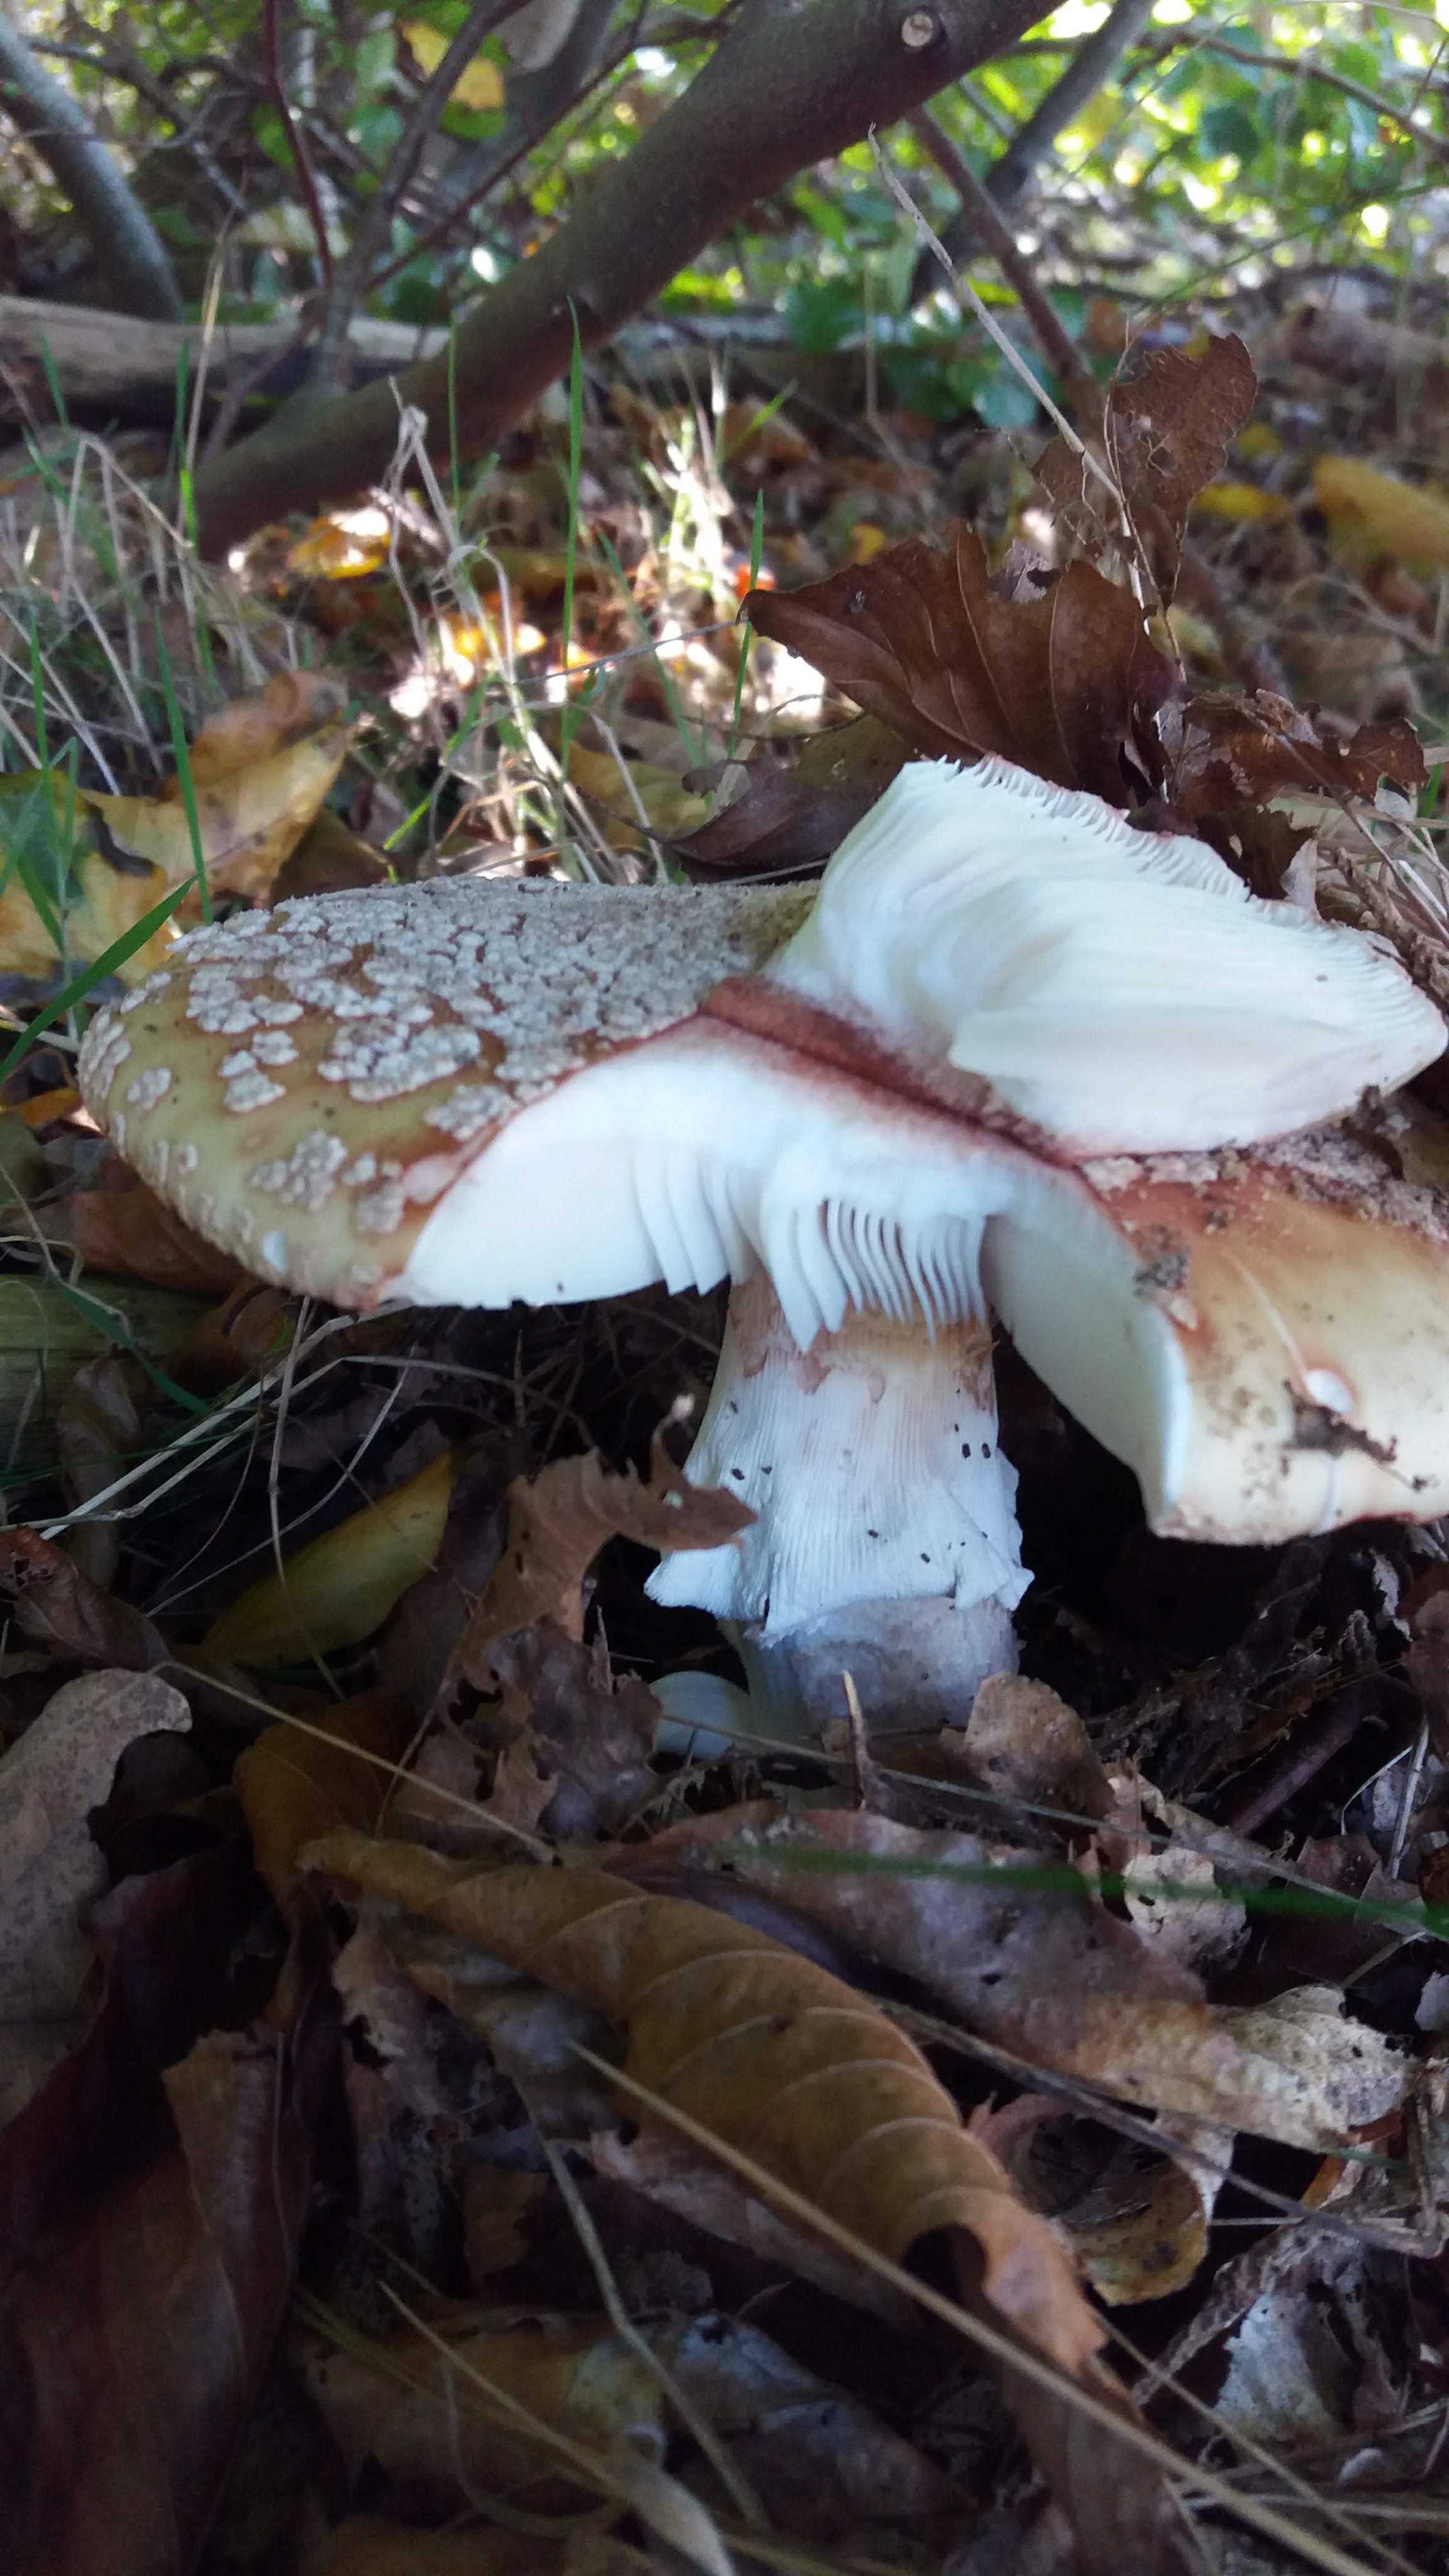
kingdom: Fungi
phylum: Basidiomycota
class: Agaricomycetes
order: Agaricales
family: Amanitaceae
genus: Amanita
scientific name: Amanita rubescens
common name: rødmende fluesvamp
